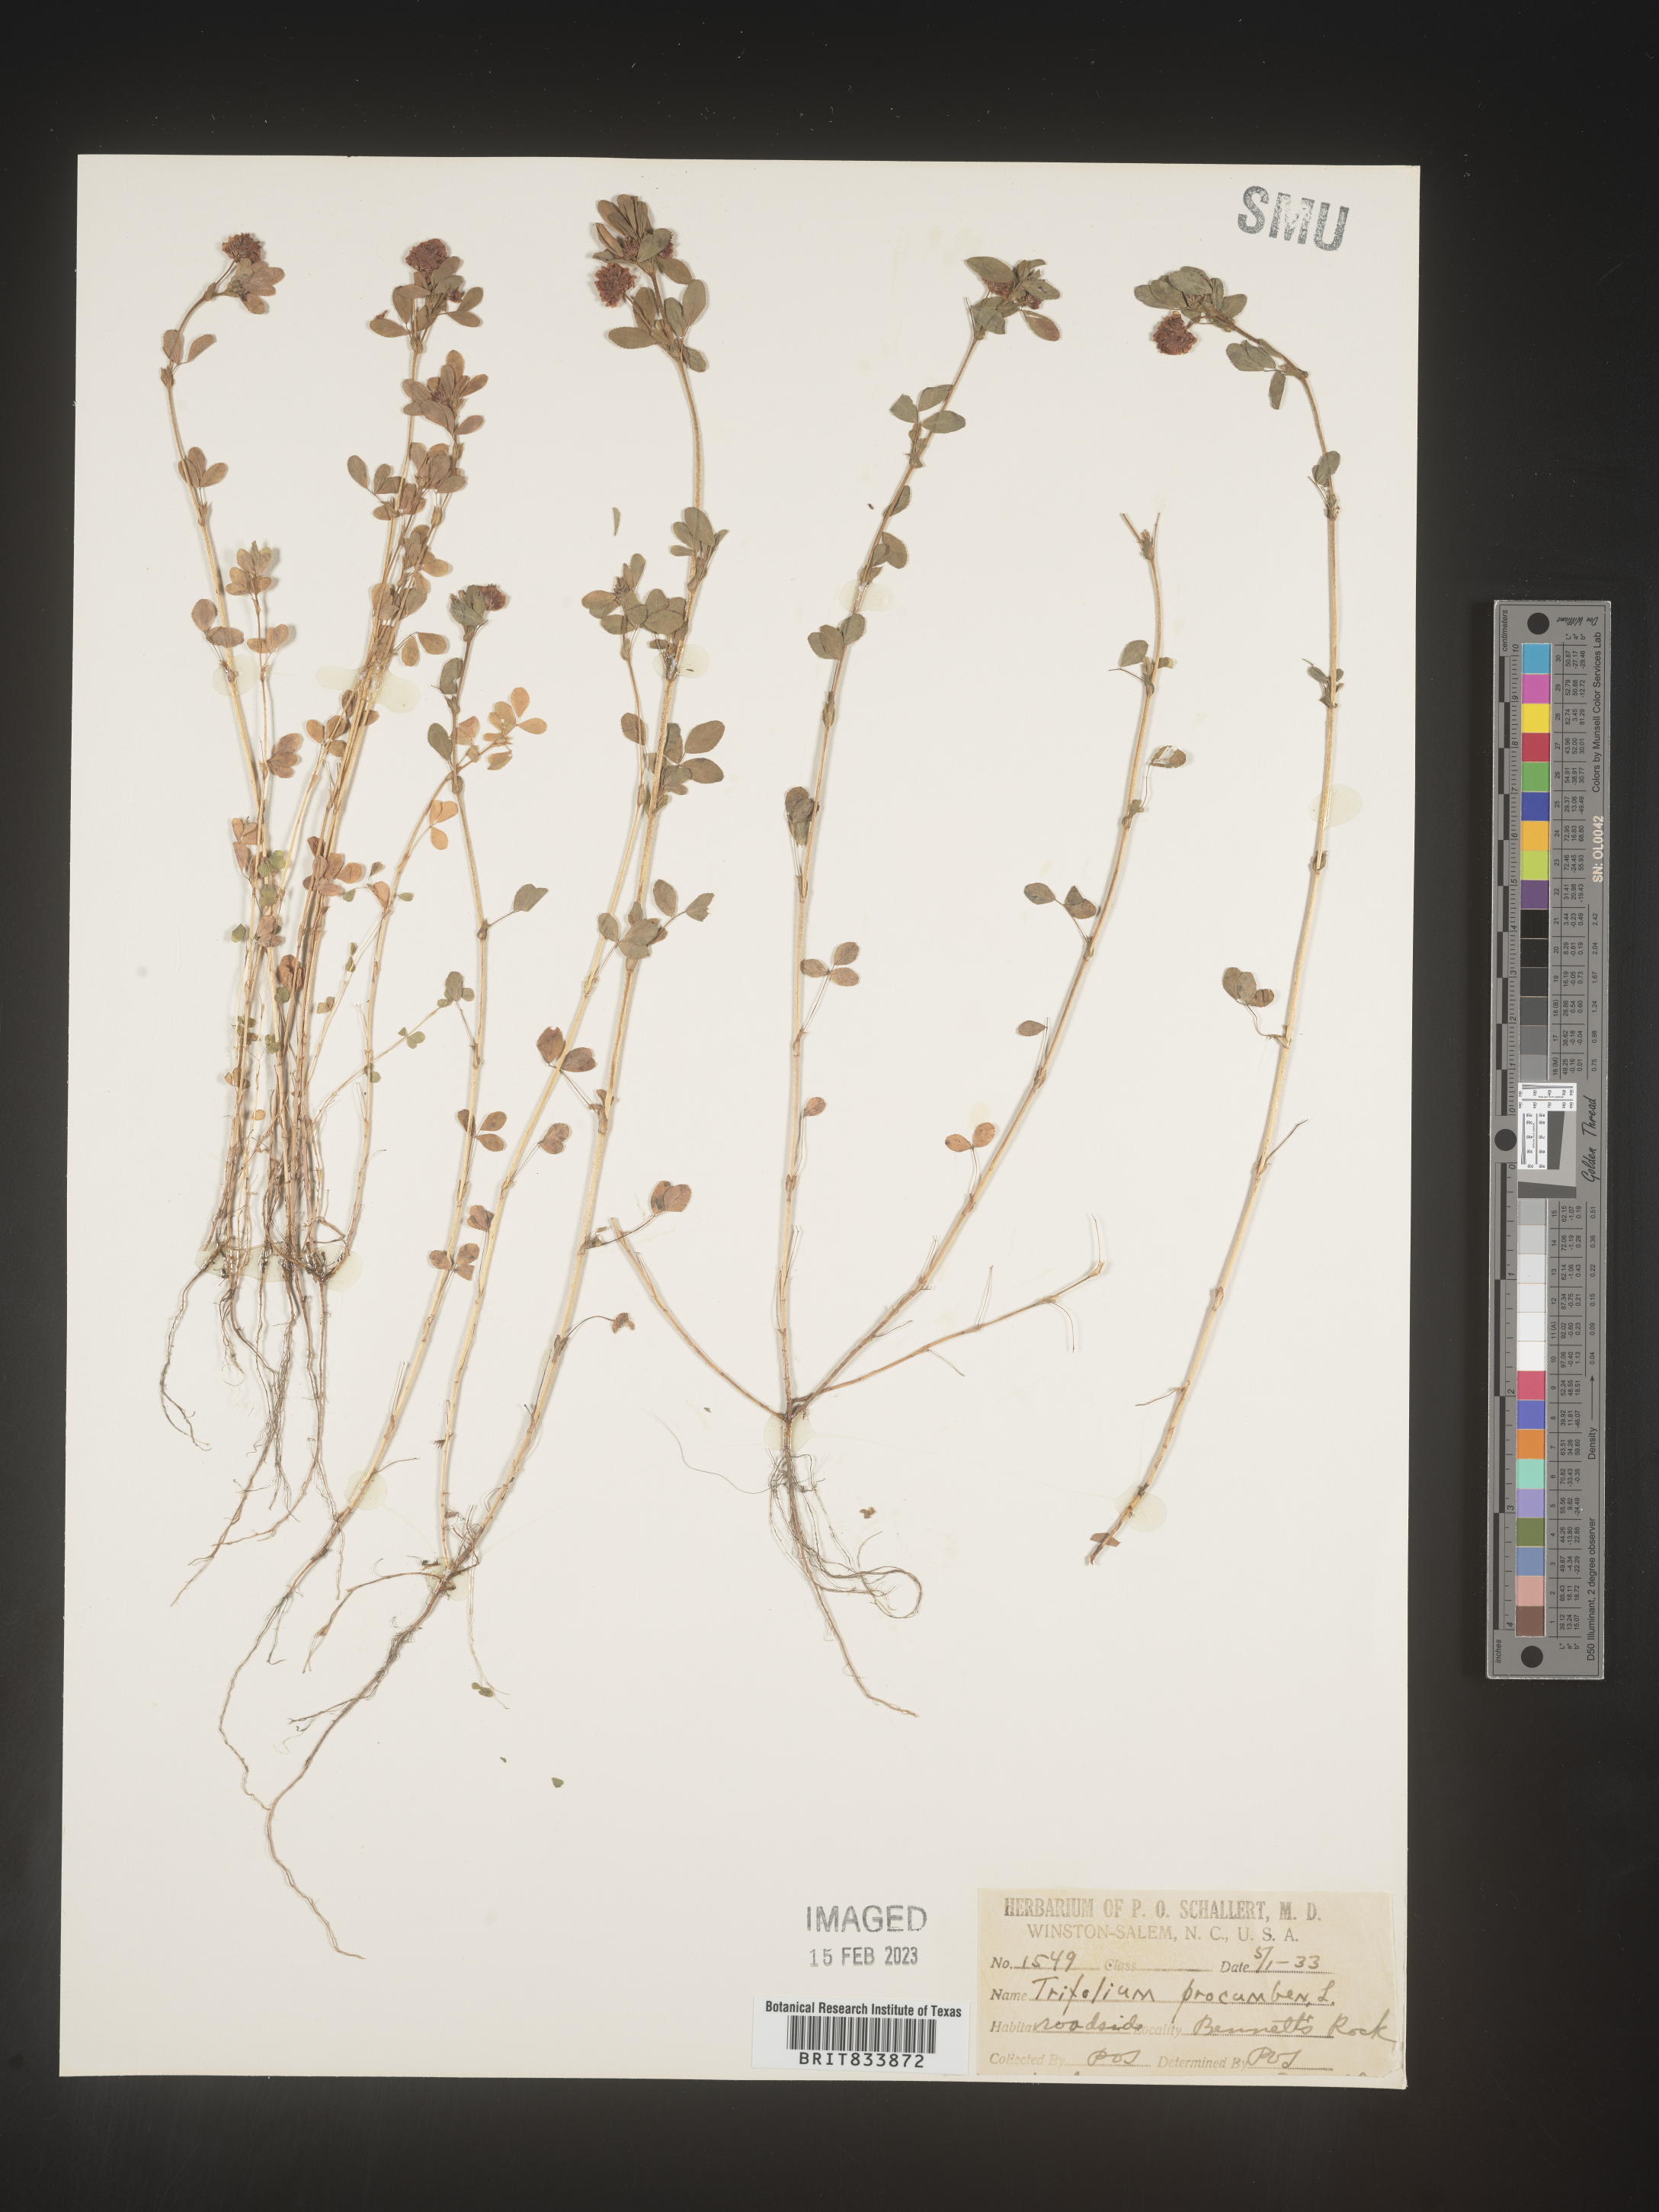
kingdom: Plantae
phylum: Tracheophyta
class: Magnoliopsida
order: Fabales
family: Fabaceae
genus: Trifolium
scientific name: Trifolium campestre
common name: Field clover
